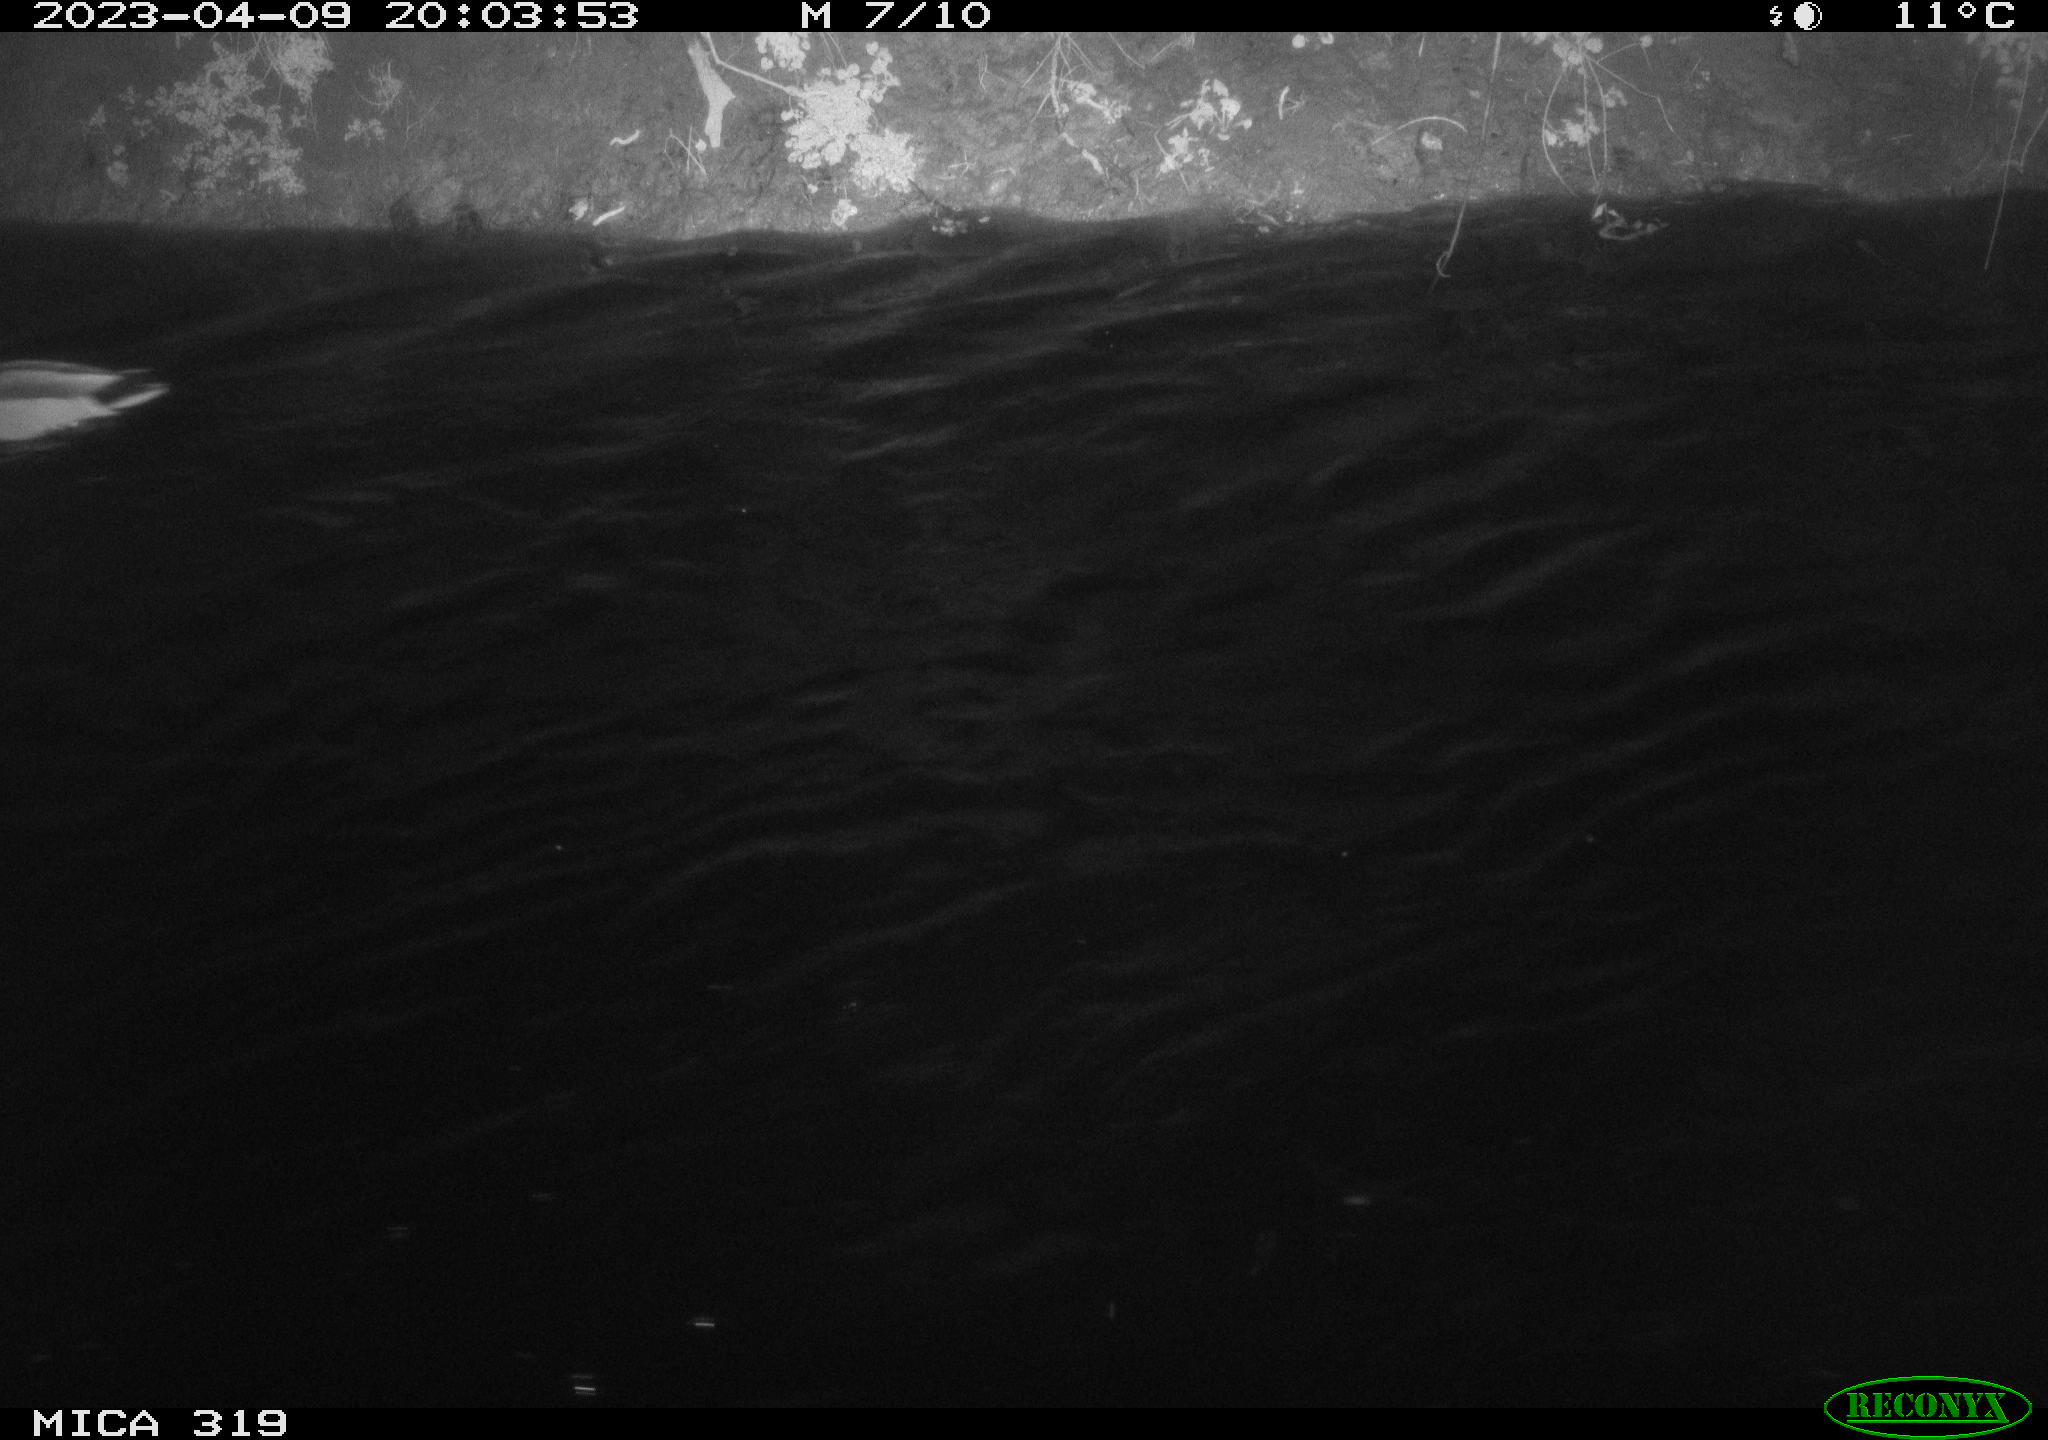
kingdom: Animalia
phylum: Chordata
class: Aves
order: Anseriformes
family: Anatidae
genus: Anas
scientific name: Anas
